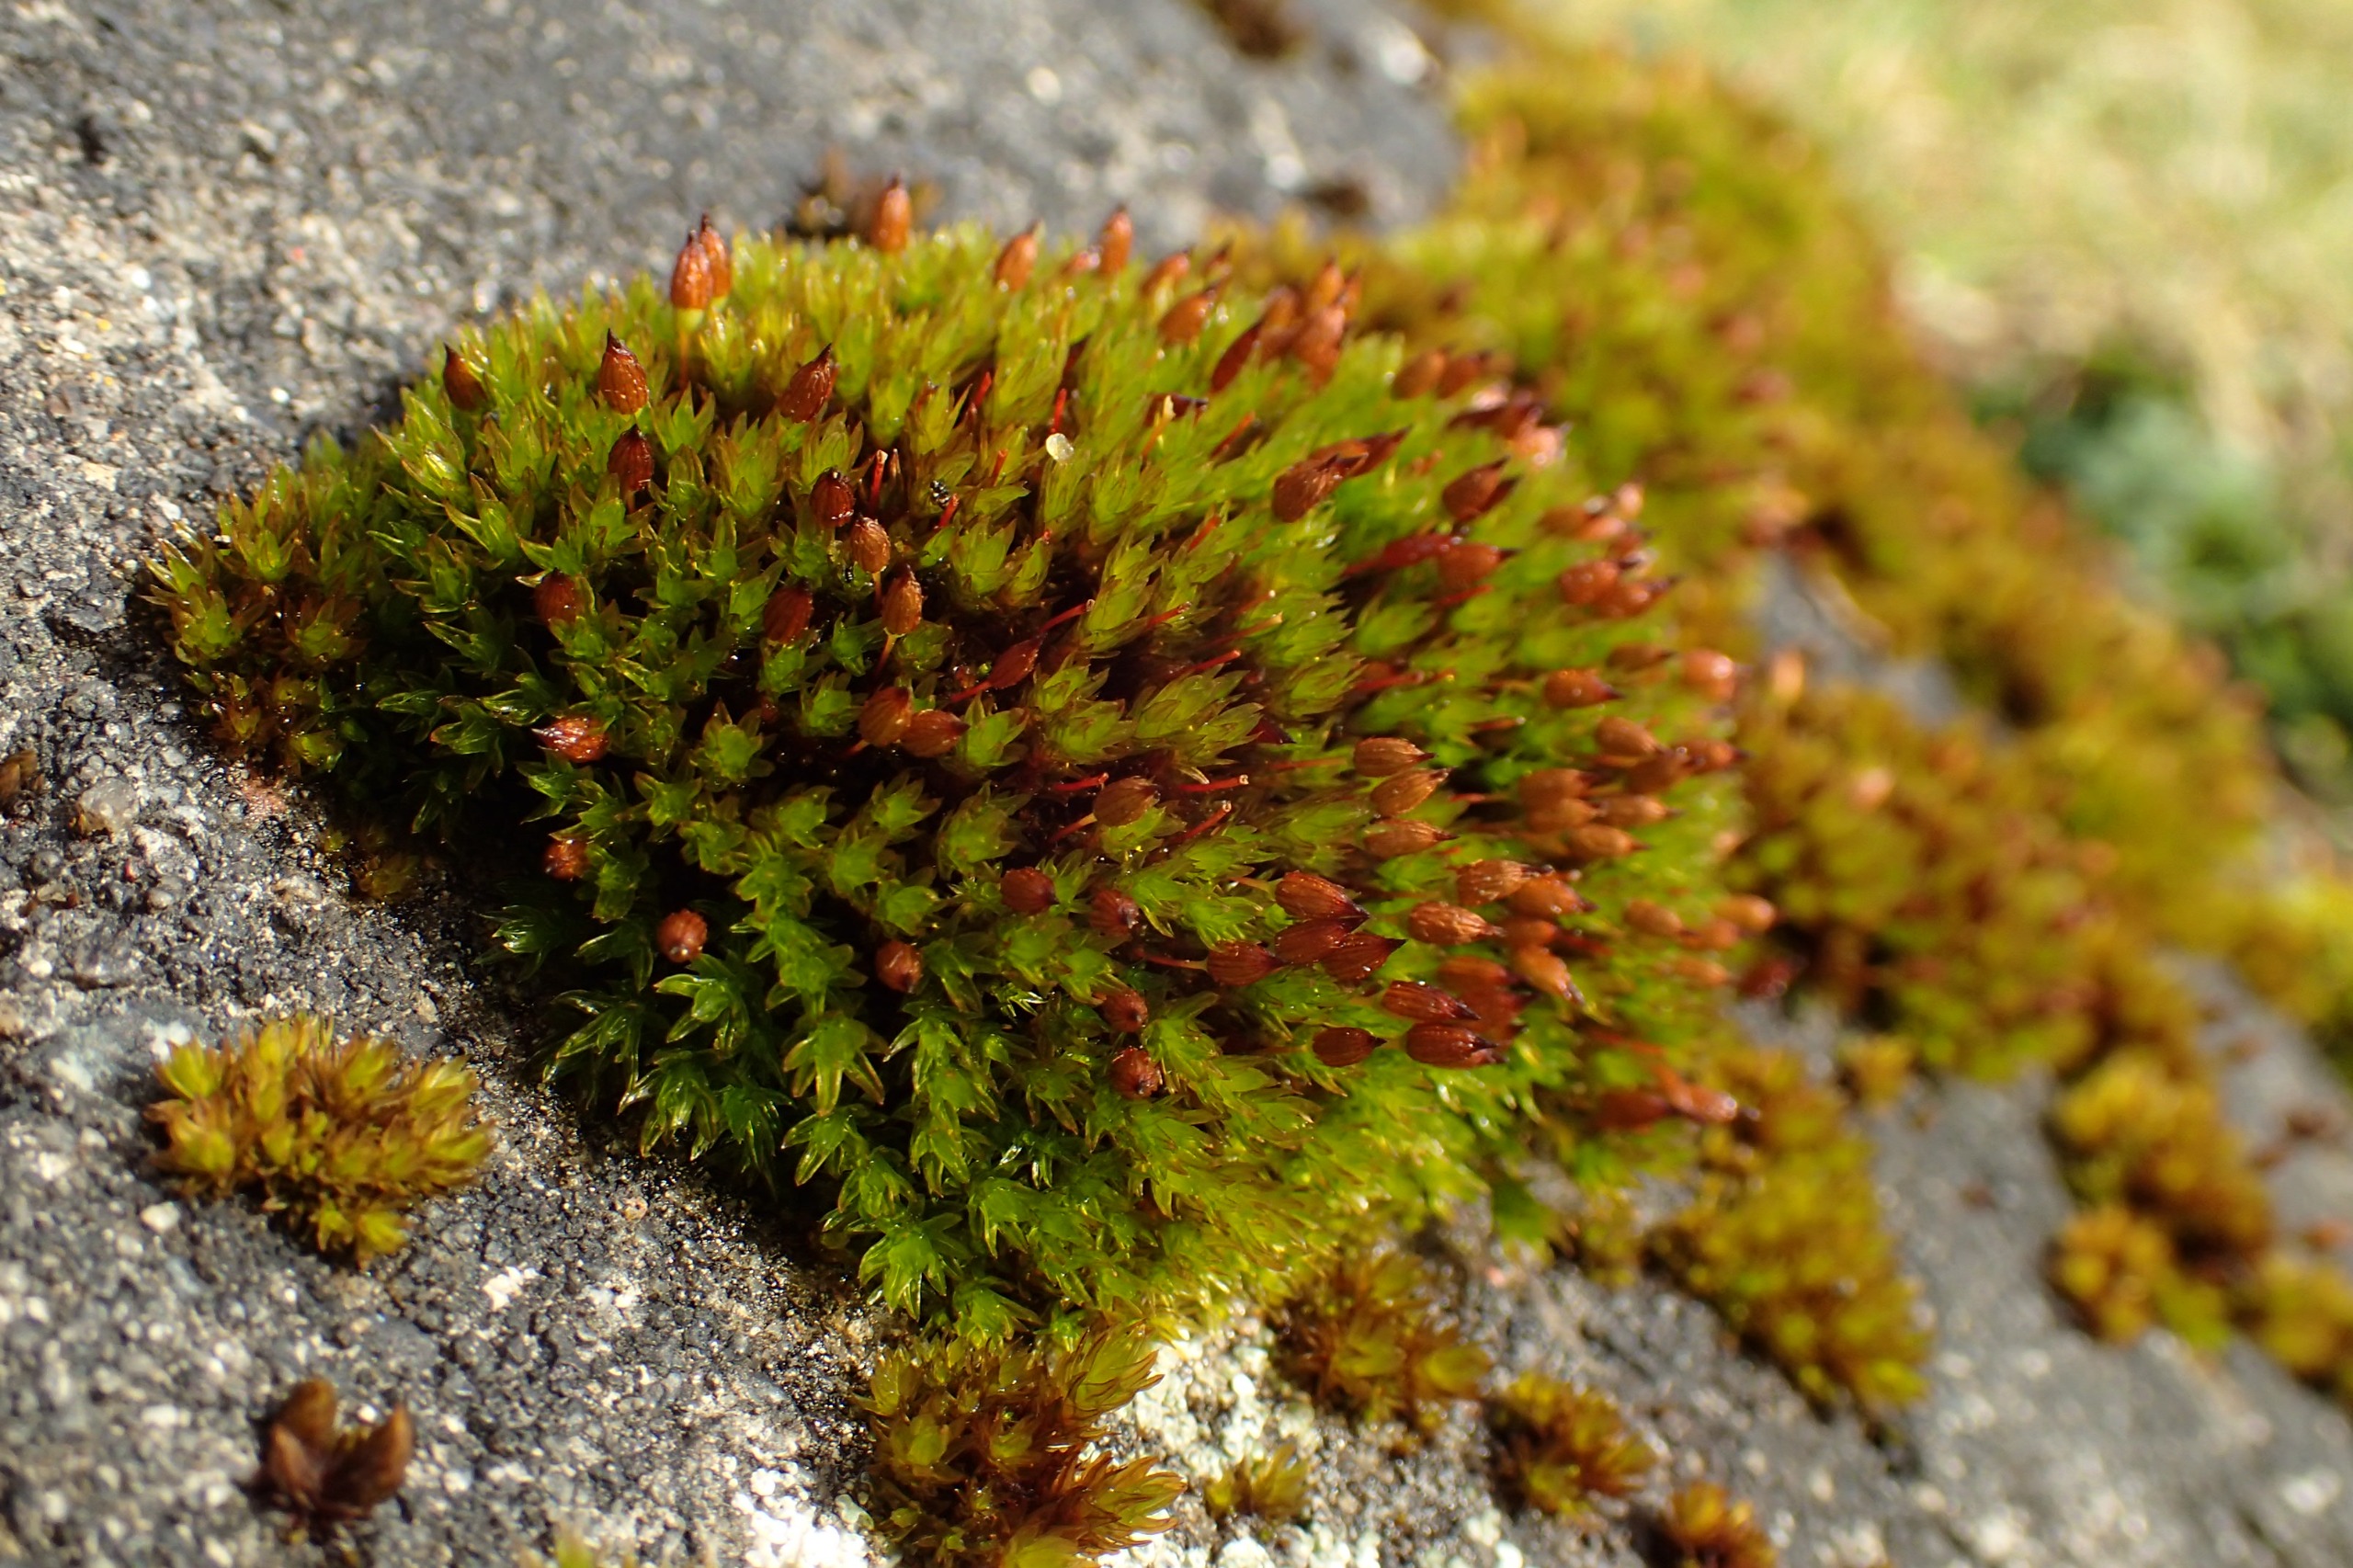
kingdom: Plantae
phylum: Bryophyta
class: Bryopsida
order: Orthotrichales
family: Orthotrichaceae
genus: Orthotrichum
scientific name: Orthotrichum anomalum
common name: Mørk furehætte
